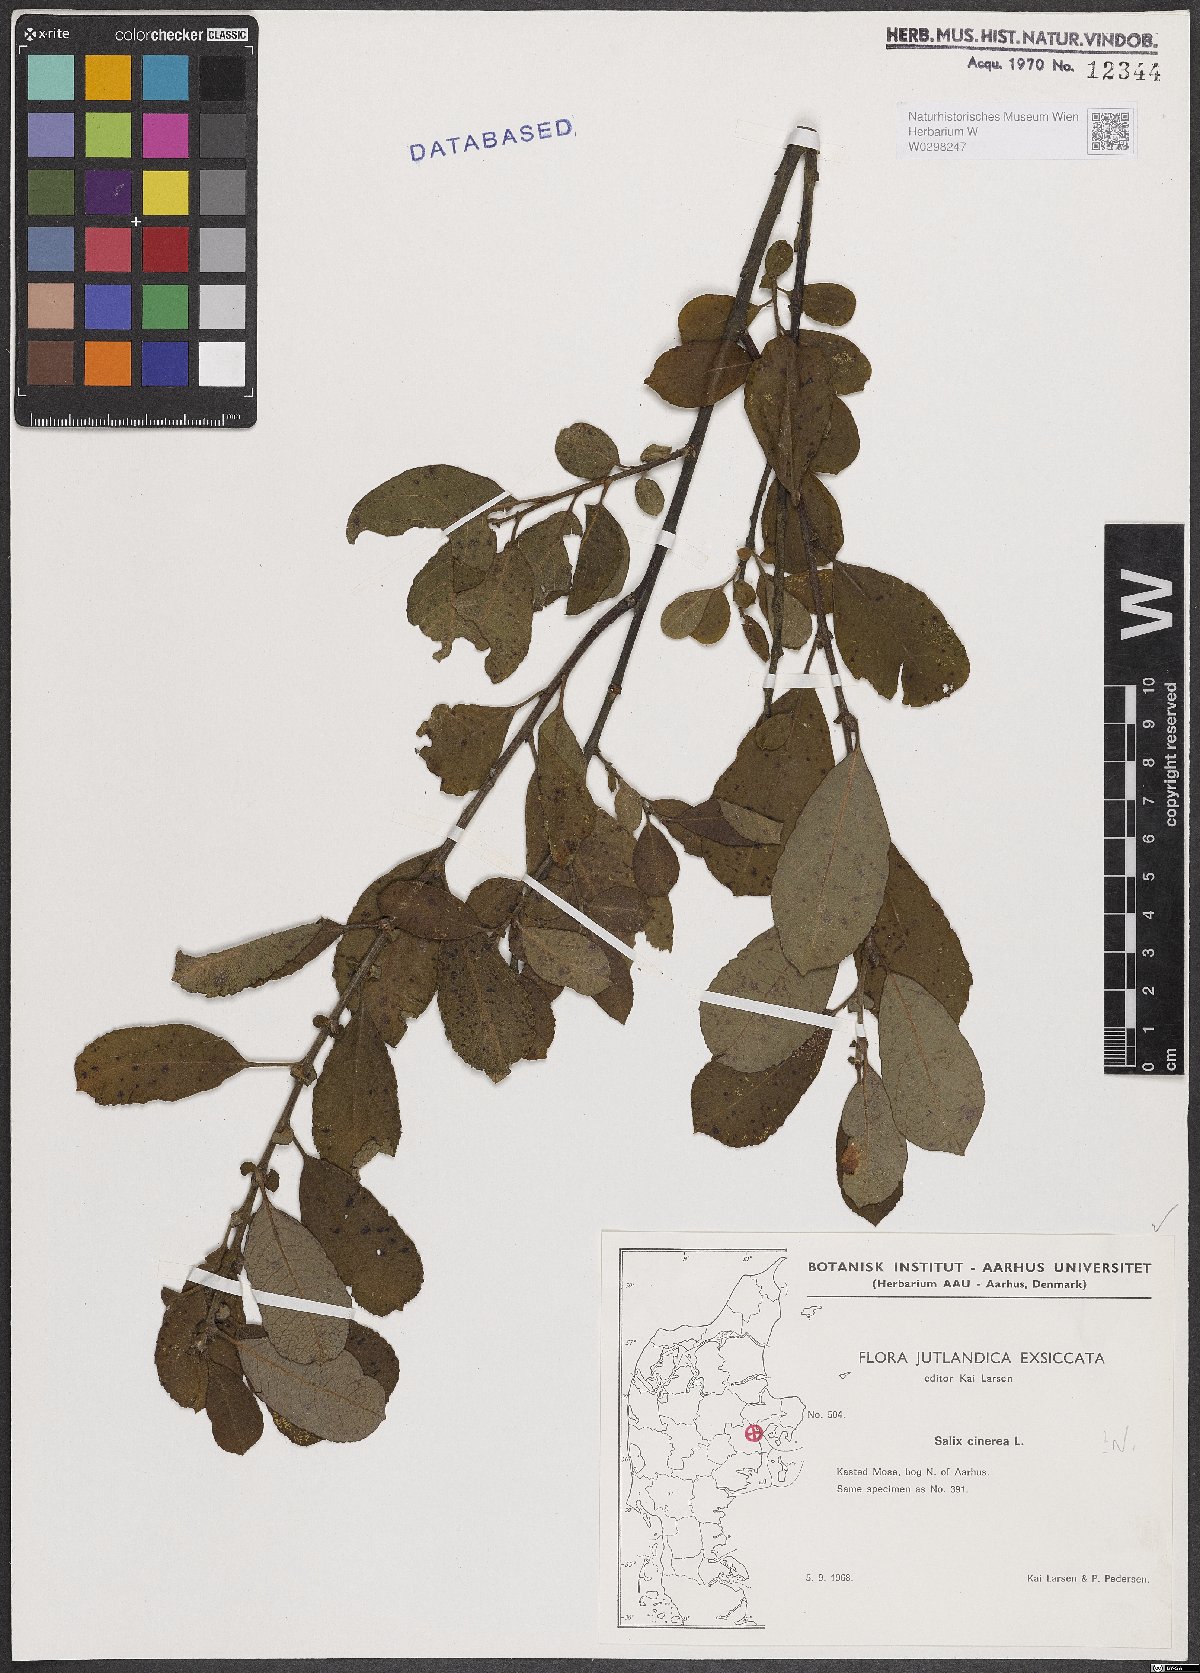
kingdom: Plantae
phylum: Tracheophyta
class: Magnoliopsida
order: Malpighiales
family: Salicaceae
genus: Salix
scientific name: Salix cinerea
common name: Common sallow
